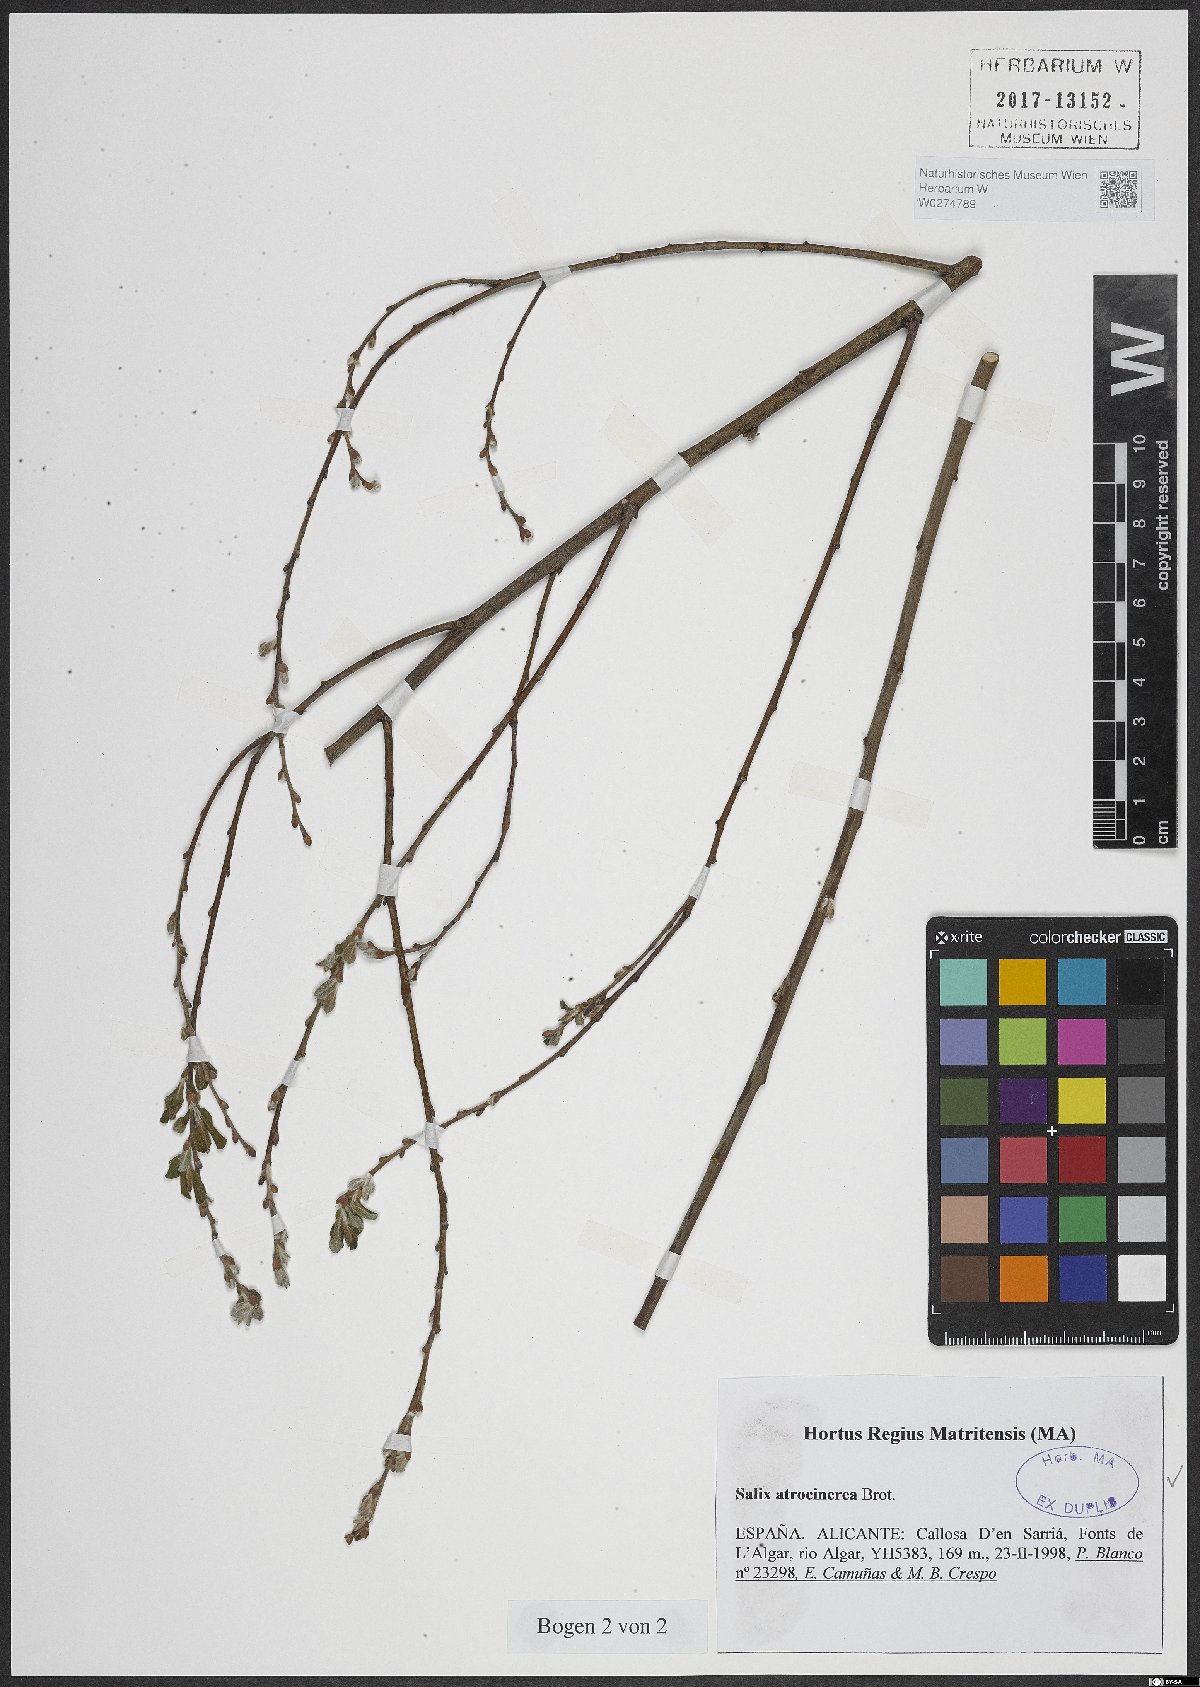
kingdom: Plantae
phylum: Tracheophyta
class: Magnoliopsida
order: Malpighiales
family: Salicaceae
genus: Salix
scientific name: Salix atrocinerea
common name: Rusty willow
